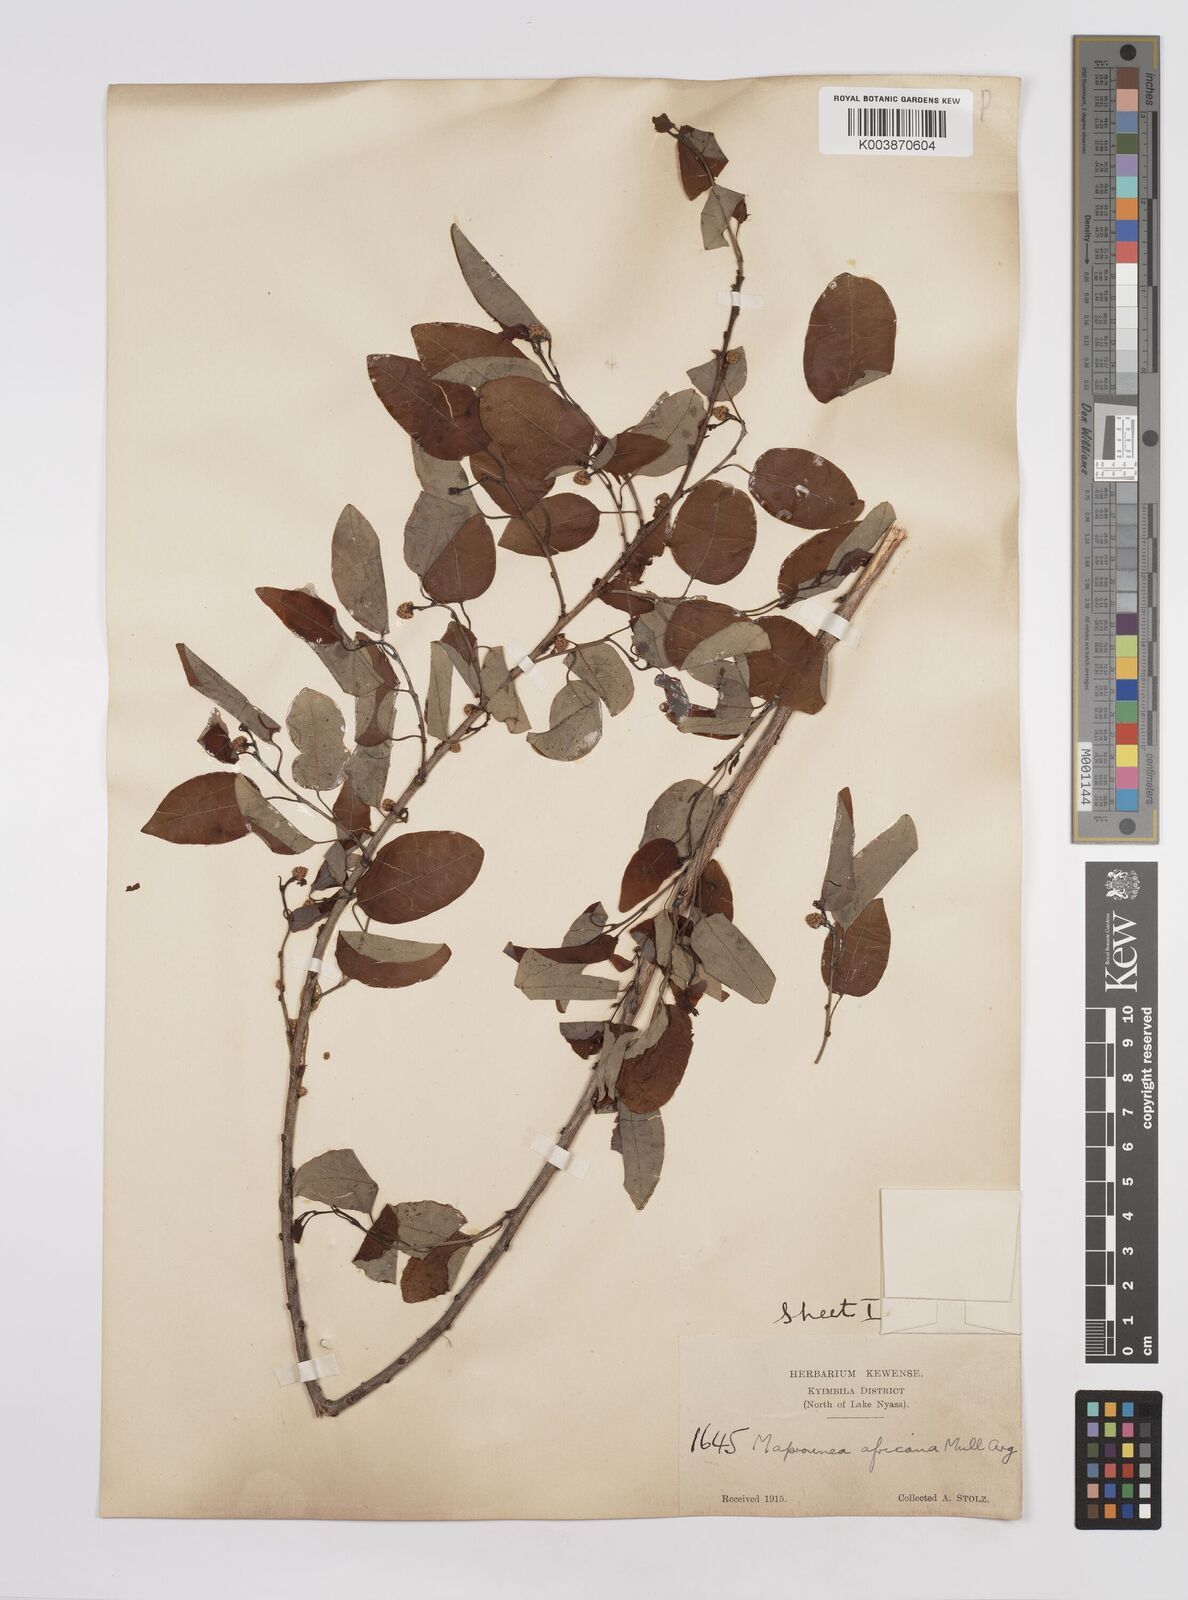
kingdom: Plantae
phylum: Tracheophyta
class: Magnoliopsida
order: Malpighiales
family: Euphorbiaceae
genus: Maprounea
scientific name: Maprounea africana
